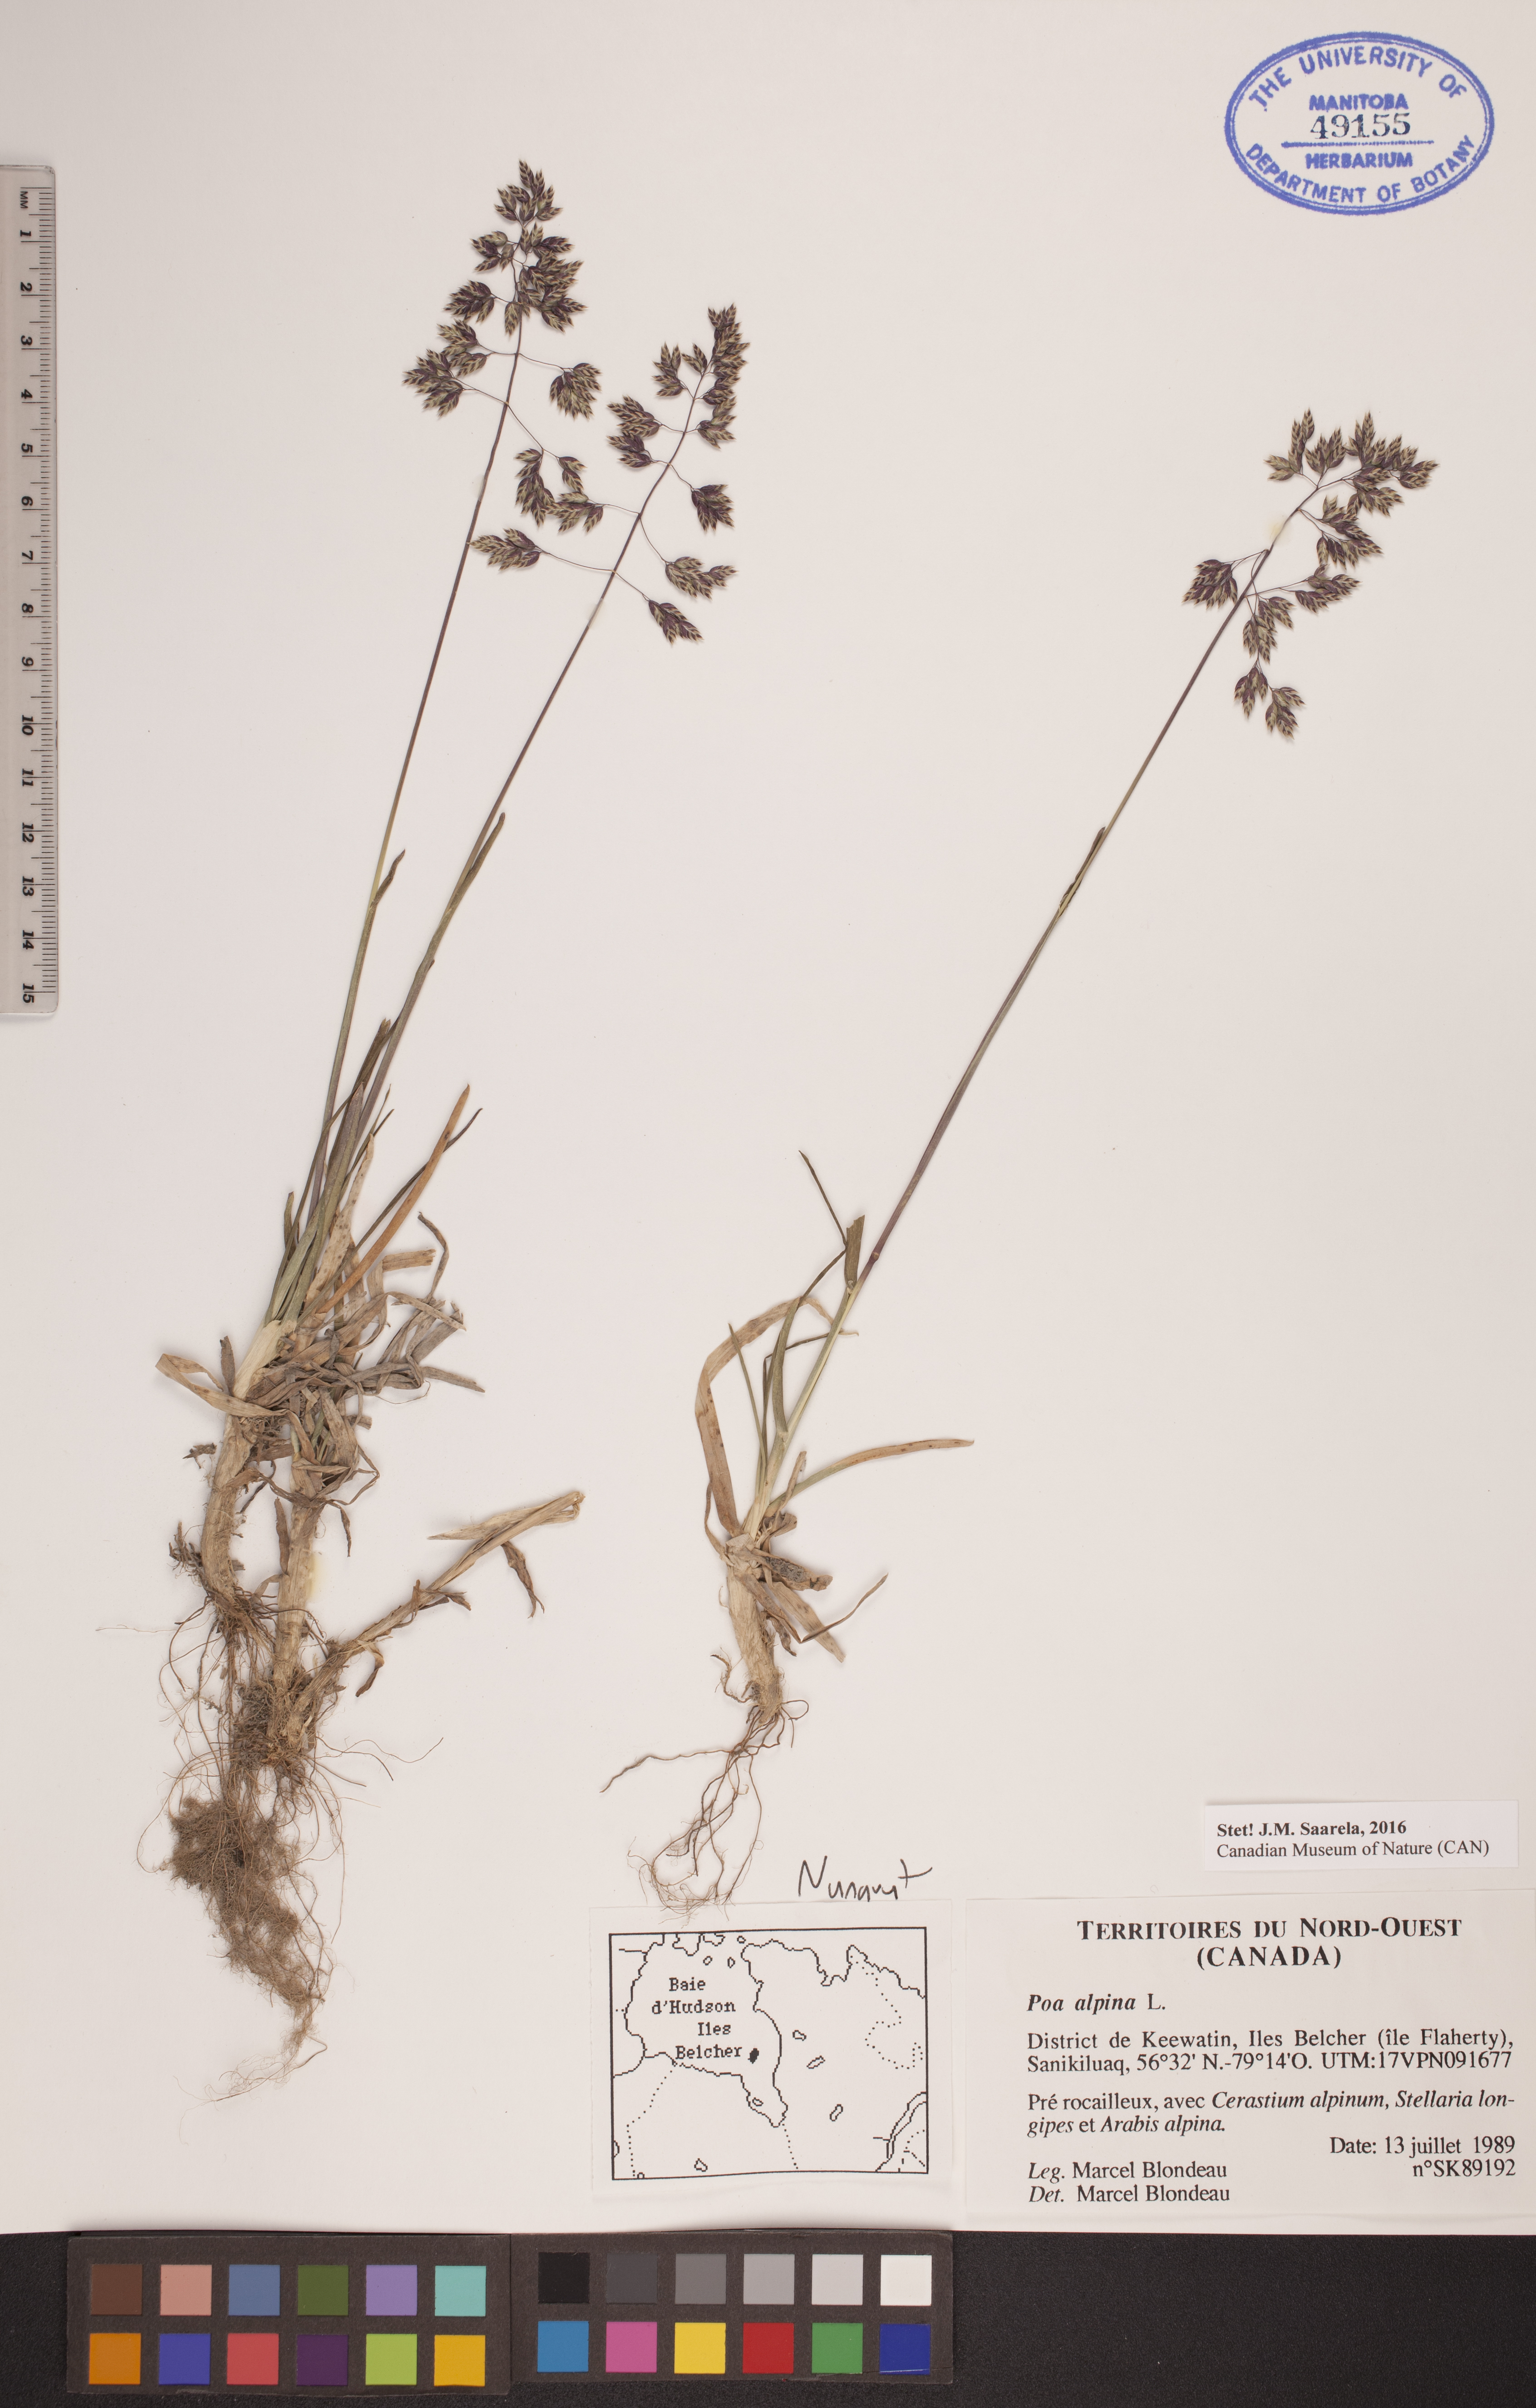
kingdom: Plantae
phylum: Tracheophyta
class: Liliopsida
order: Poales
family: Poaceae
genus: Poa
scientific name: Poa alpina
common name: Alpine bluegrass
